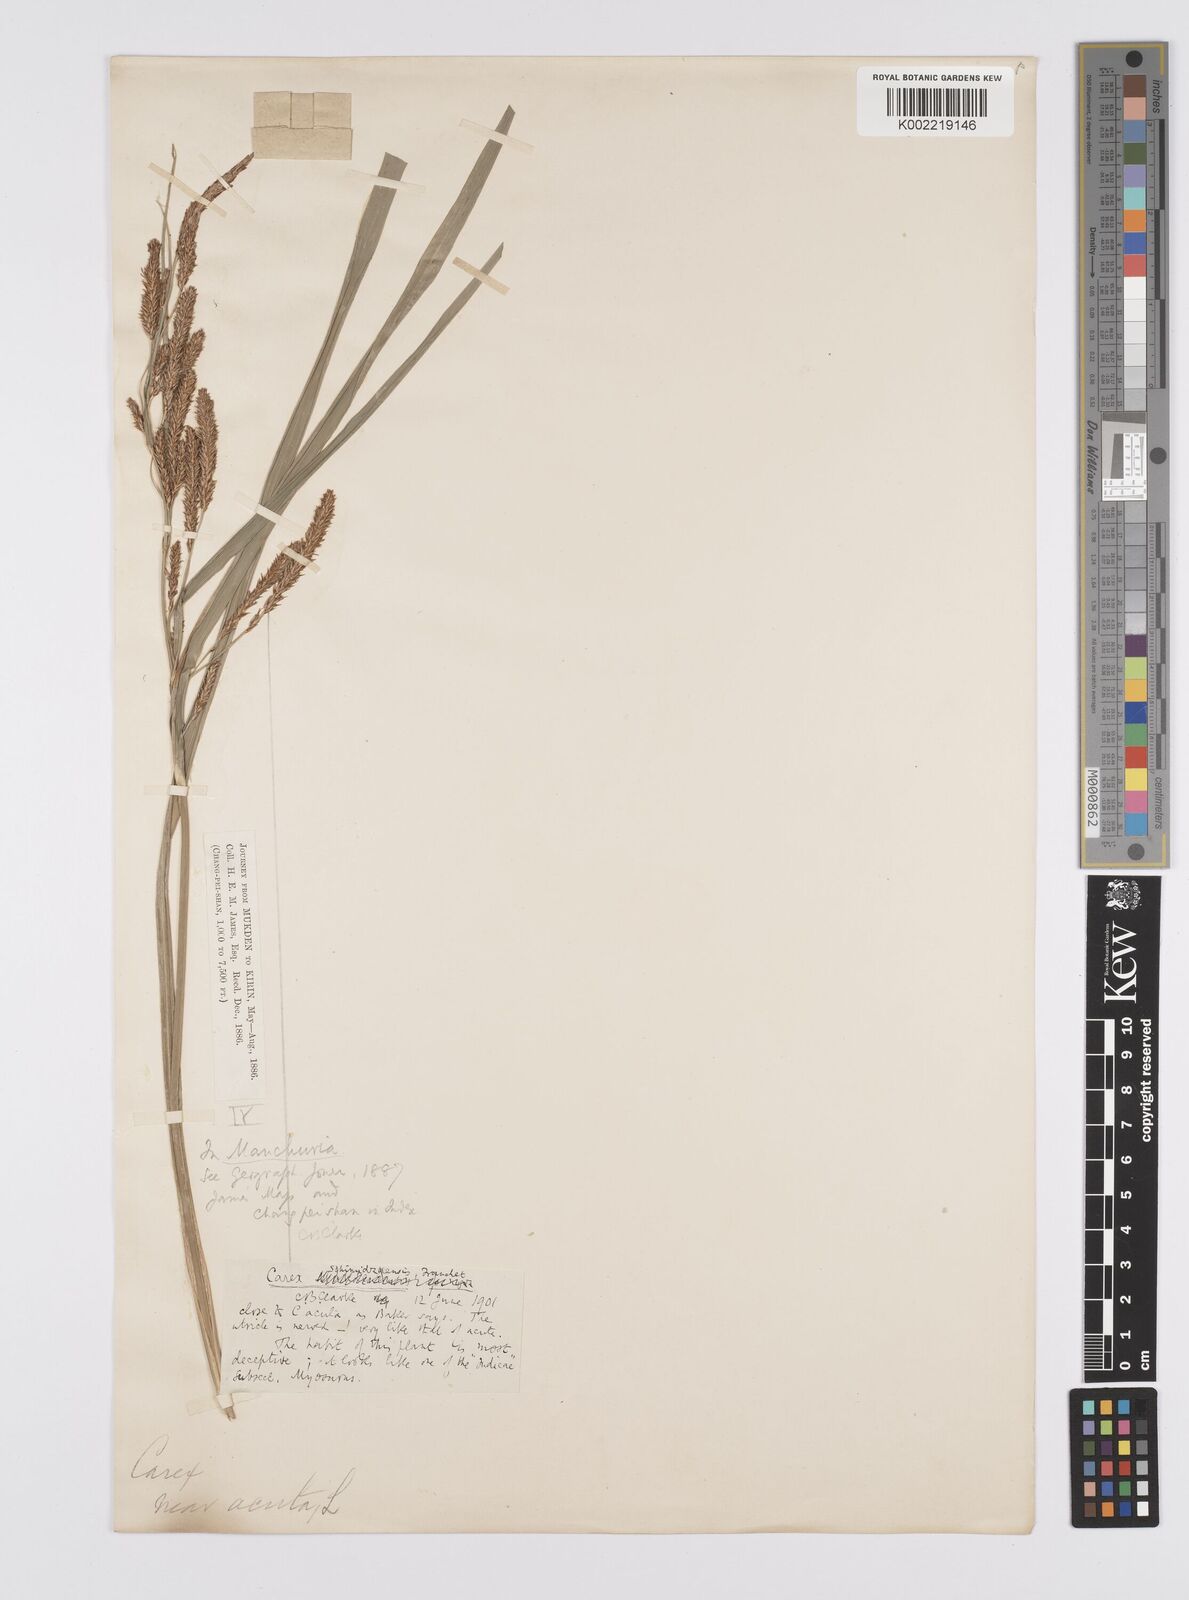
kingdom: Plantae
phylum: Tracheophyta
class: Liliopsida
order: Poales
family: Cyperaceae
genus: Carex
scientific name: Carex
